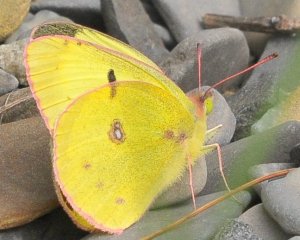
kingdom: Animalia
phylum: Arthropoda
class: Insecta
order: Lepidoptera
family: Pieridae
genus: Colias
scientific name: Colias philodice
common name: Clouded Sulphur
